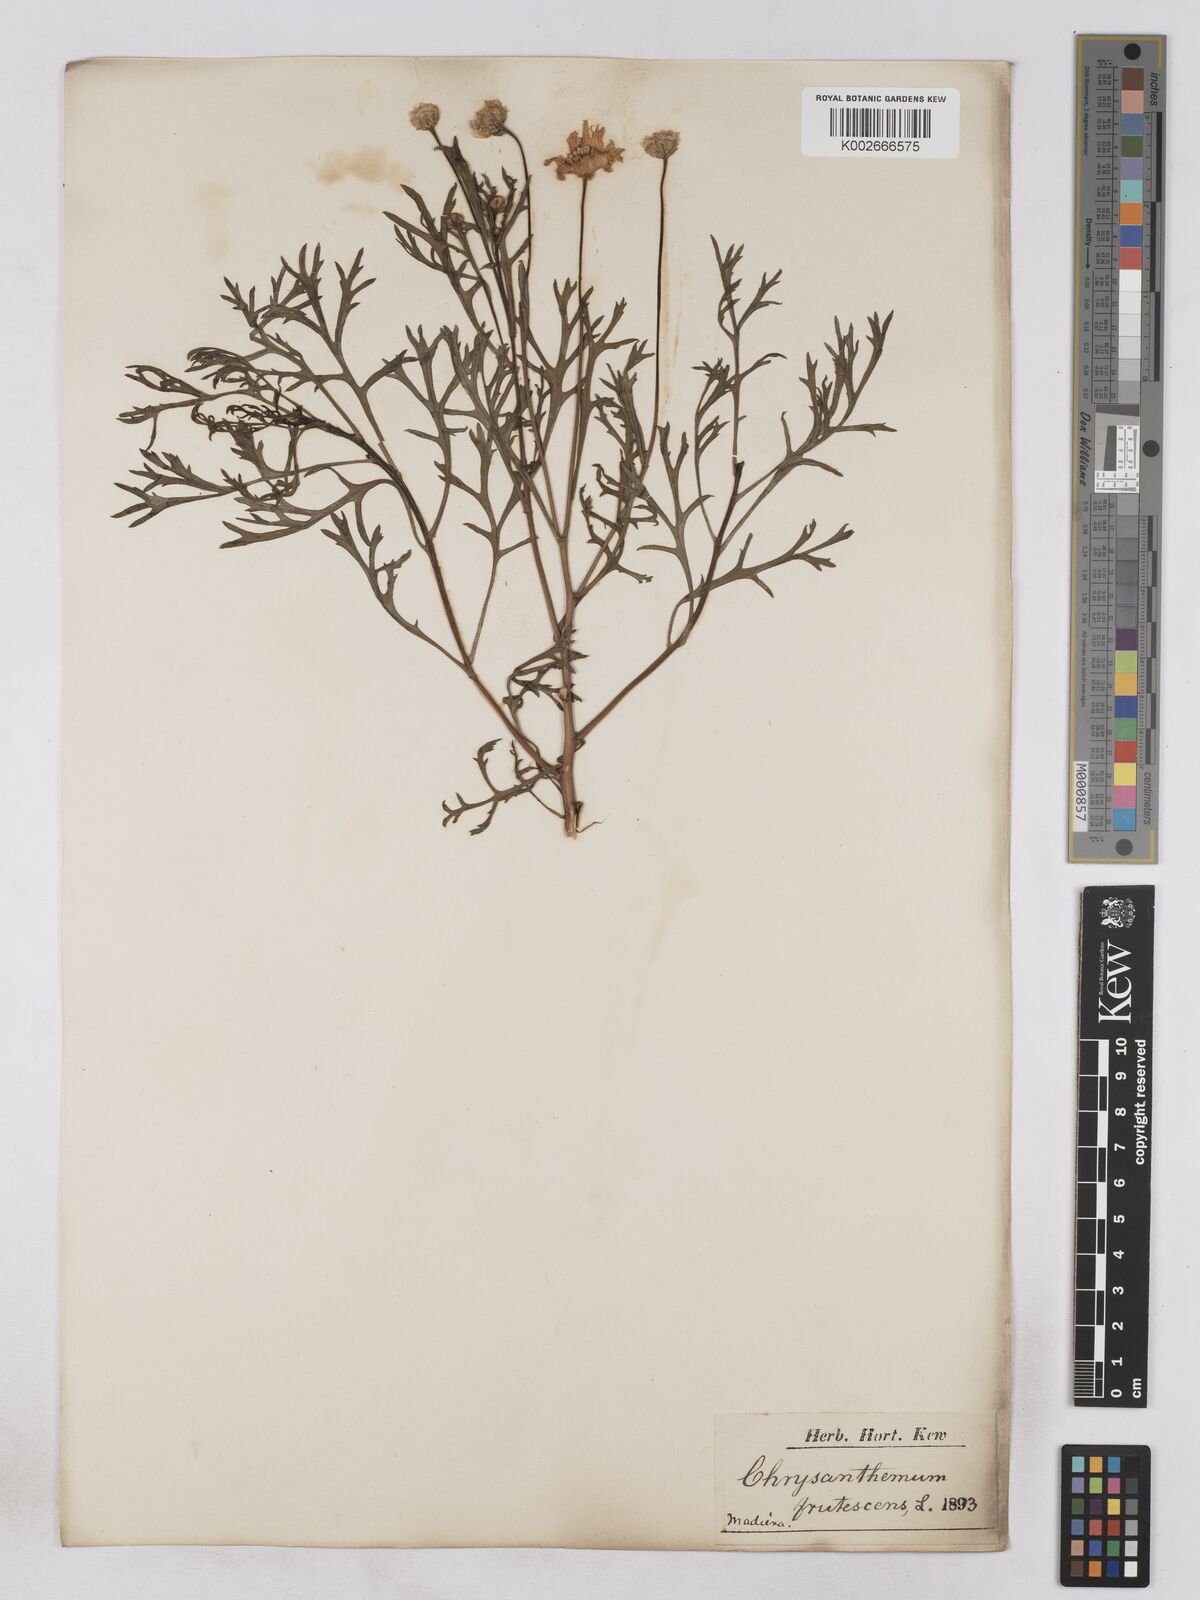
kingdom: Plantae
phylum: Tracheophyta
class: Magnoliopsida
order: Asterales
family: Asteraceae
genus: Argyranthemum
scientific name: Argyranthemum frutescens
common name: Paris daisy
